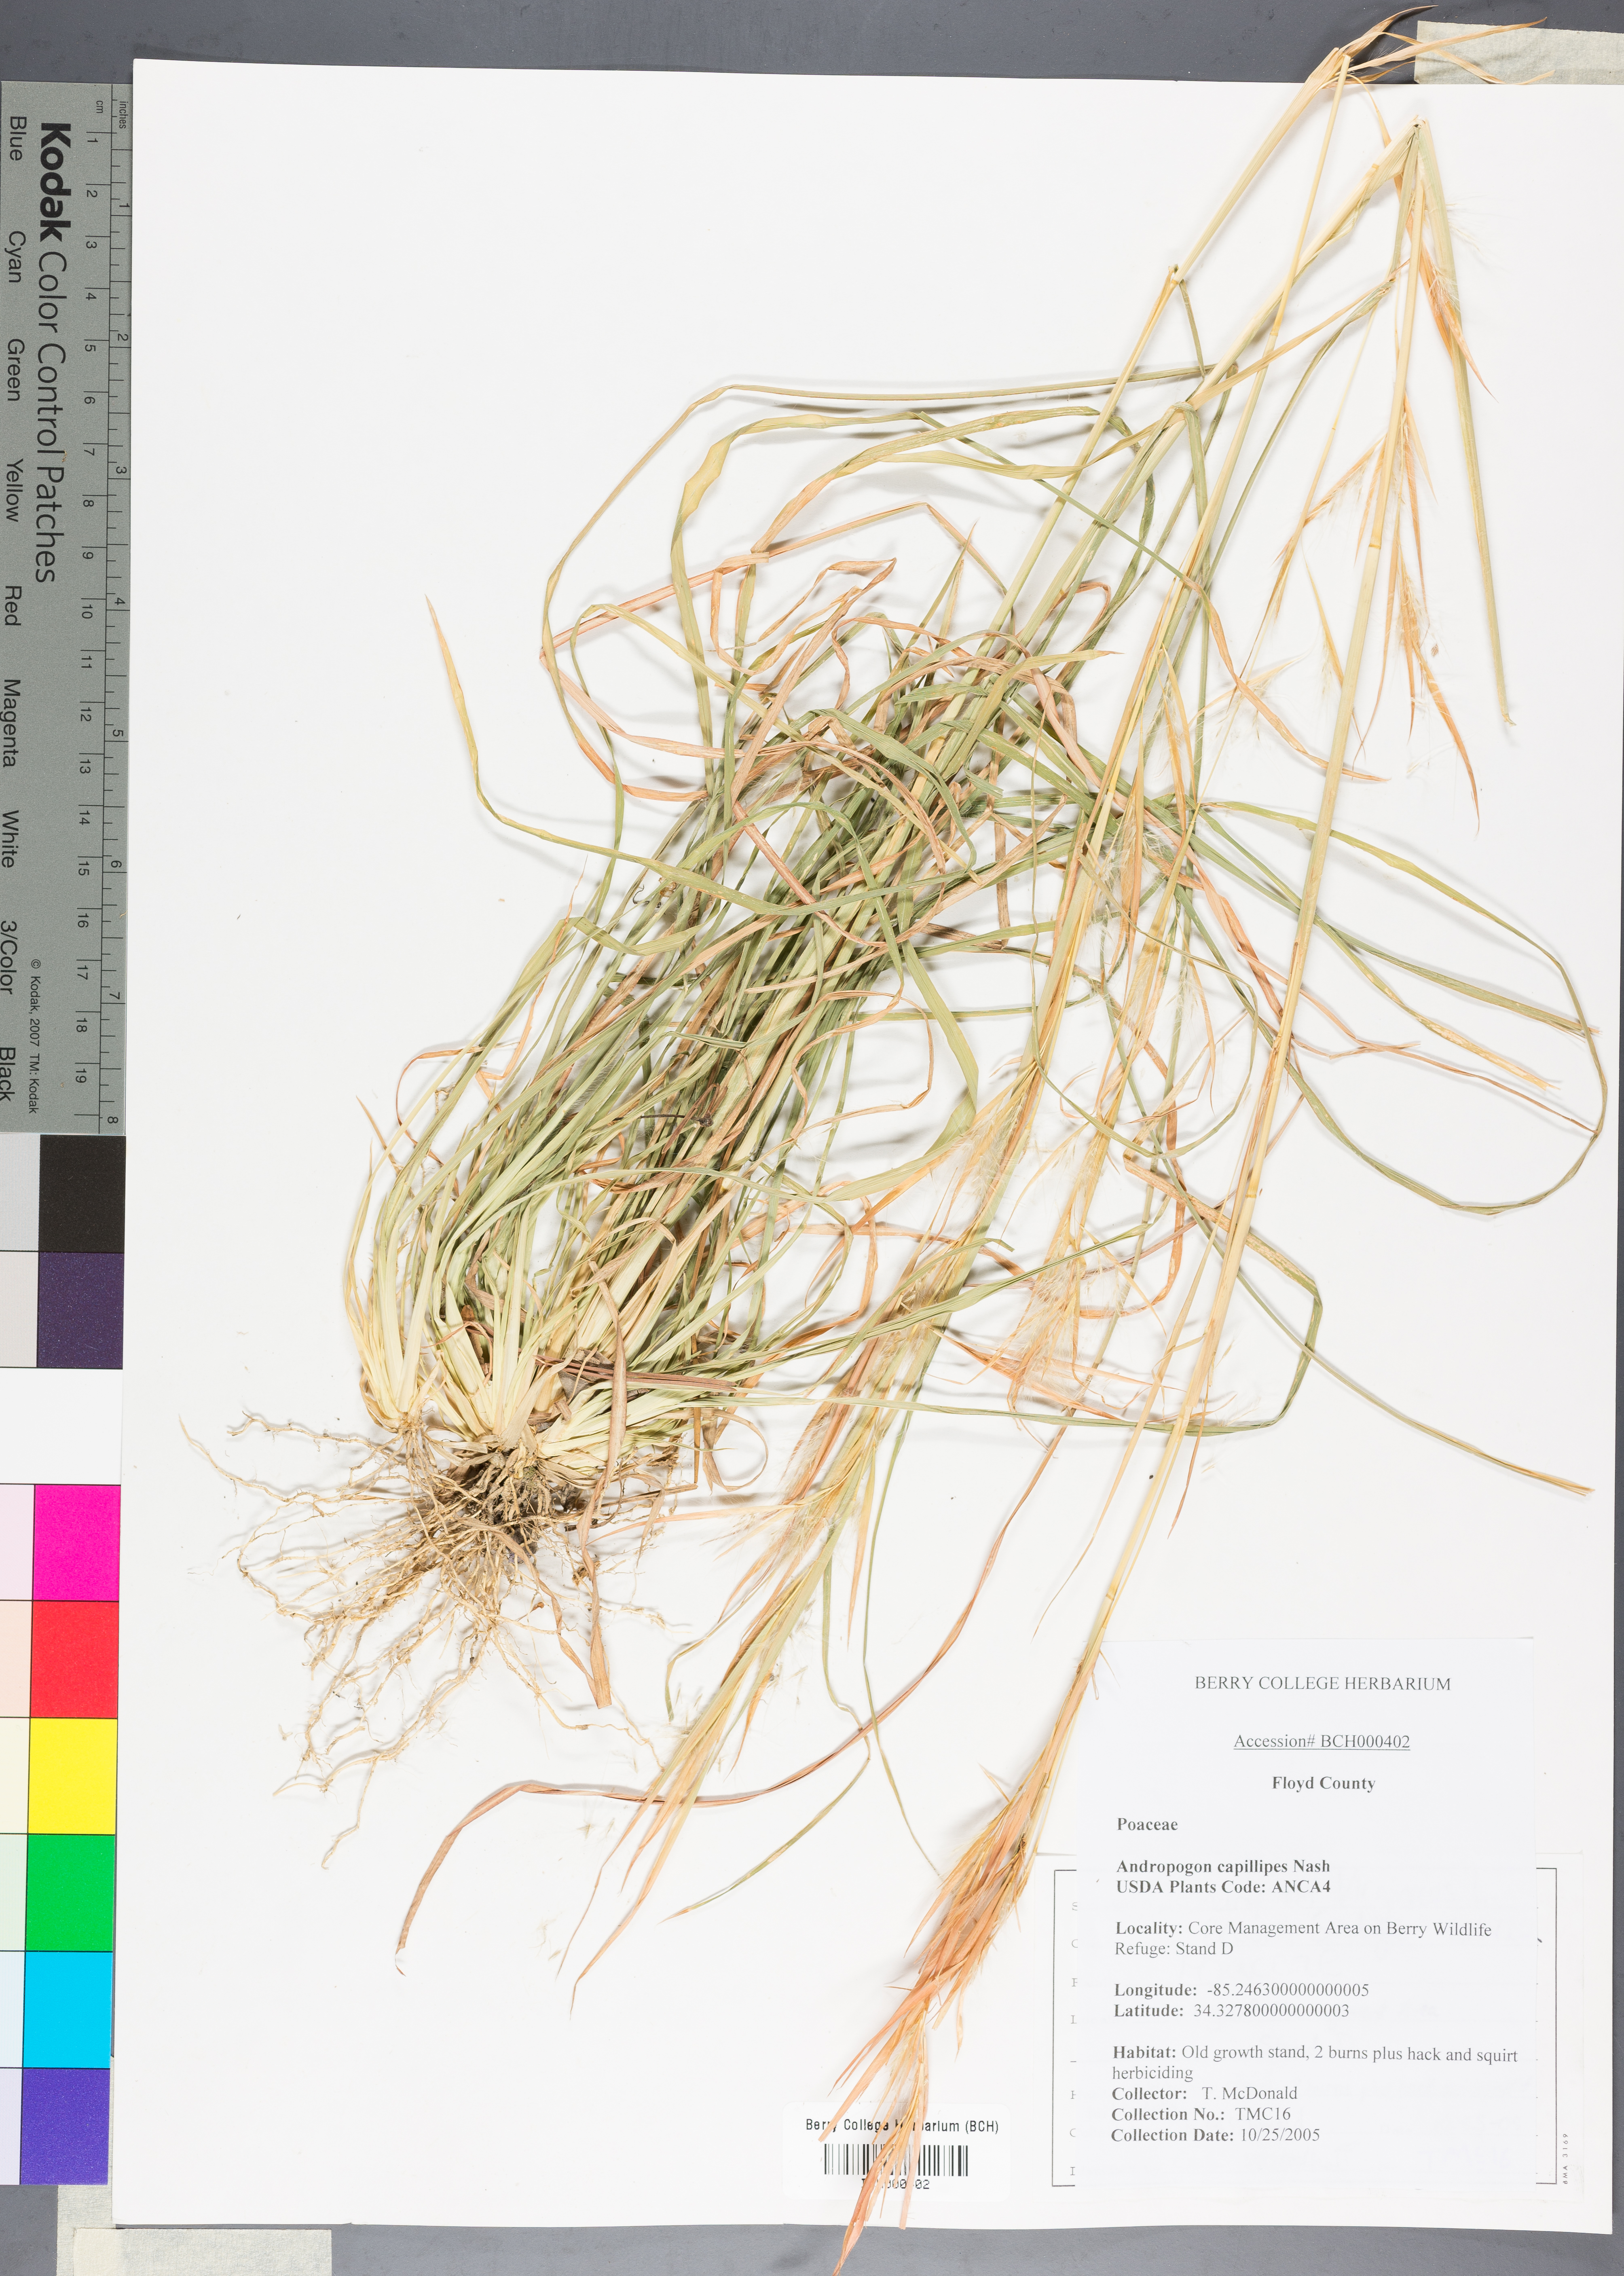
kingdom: Plantae
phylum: Tracheophyta
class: Liliopsida
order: Poales
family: Poaceae
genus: Andropogon
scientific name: Andropogon capillipes
